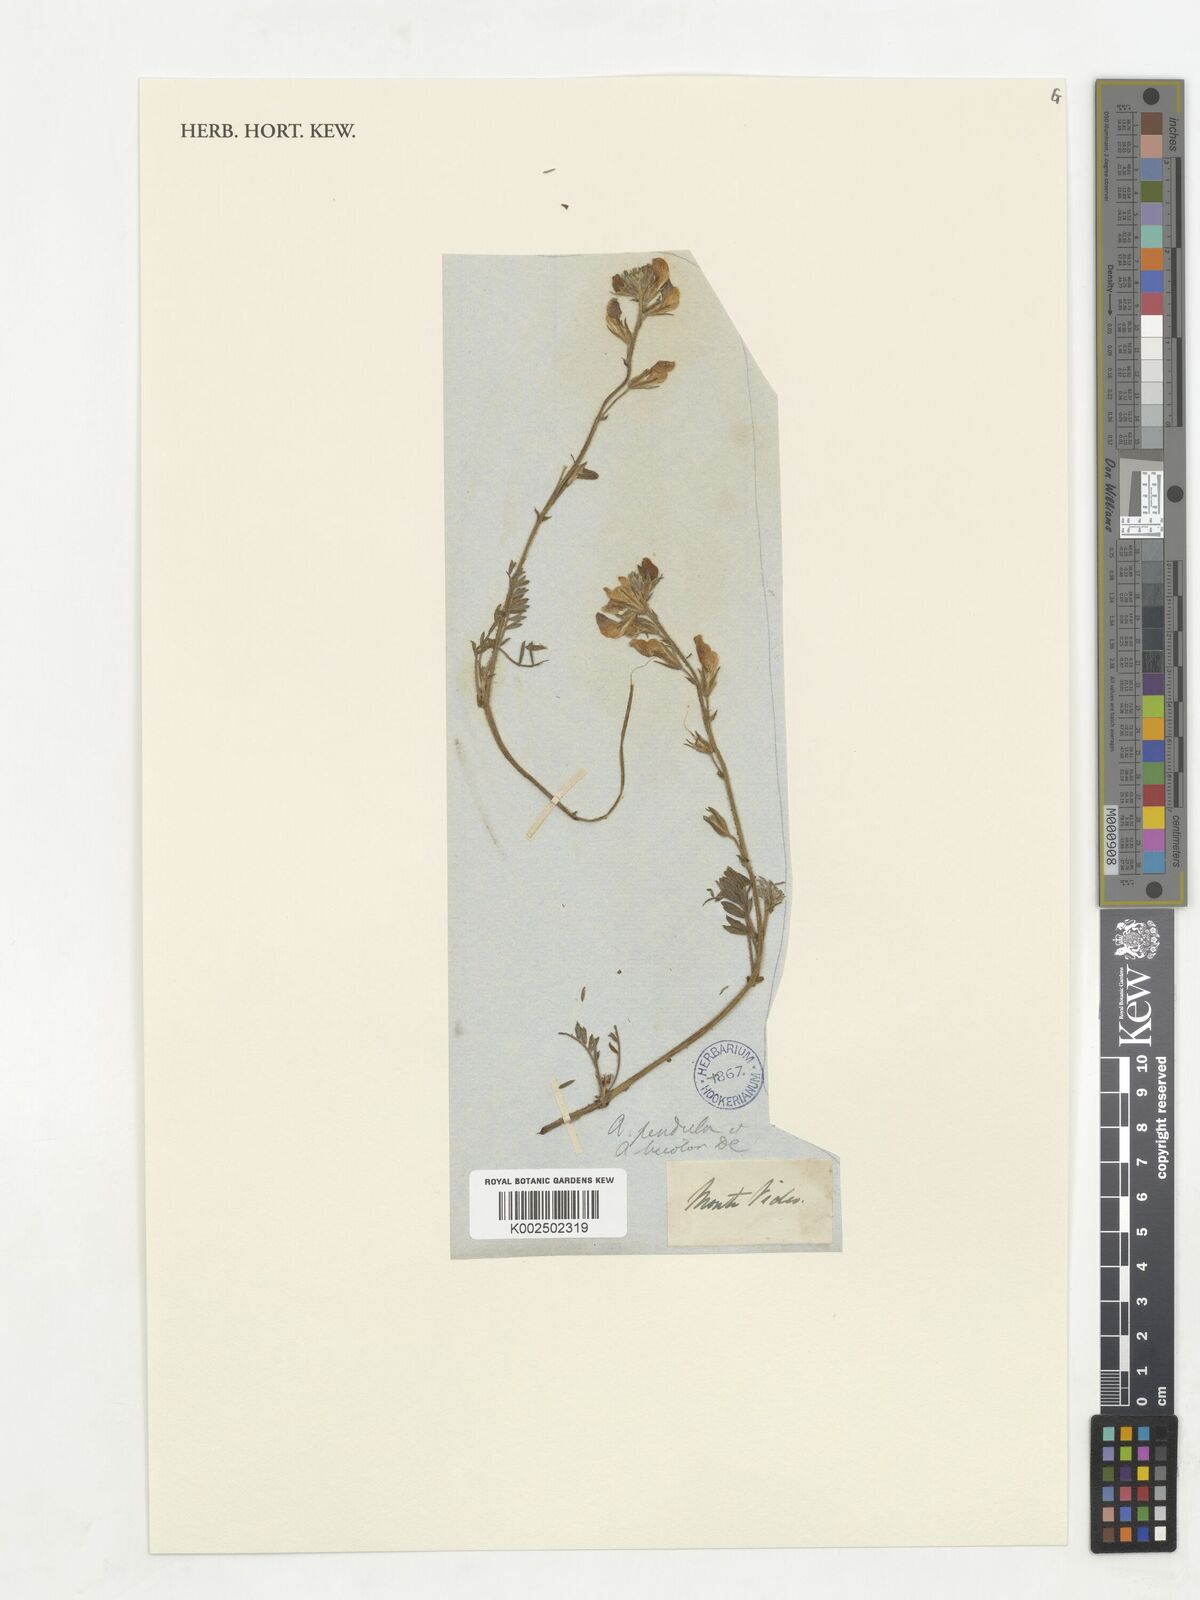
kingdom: Plantae
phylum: Tracheophyta
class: Magnoliopsida
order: Fabales
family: Fabaceae
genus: Adesmia
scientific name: Adesmia emarginata
